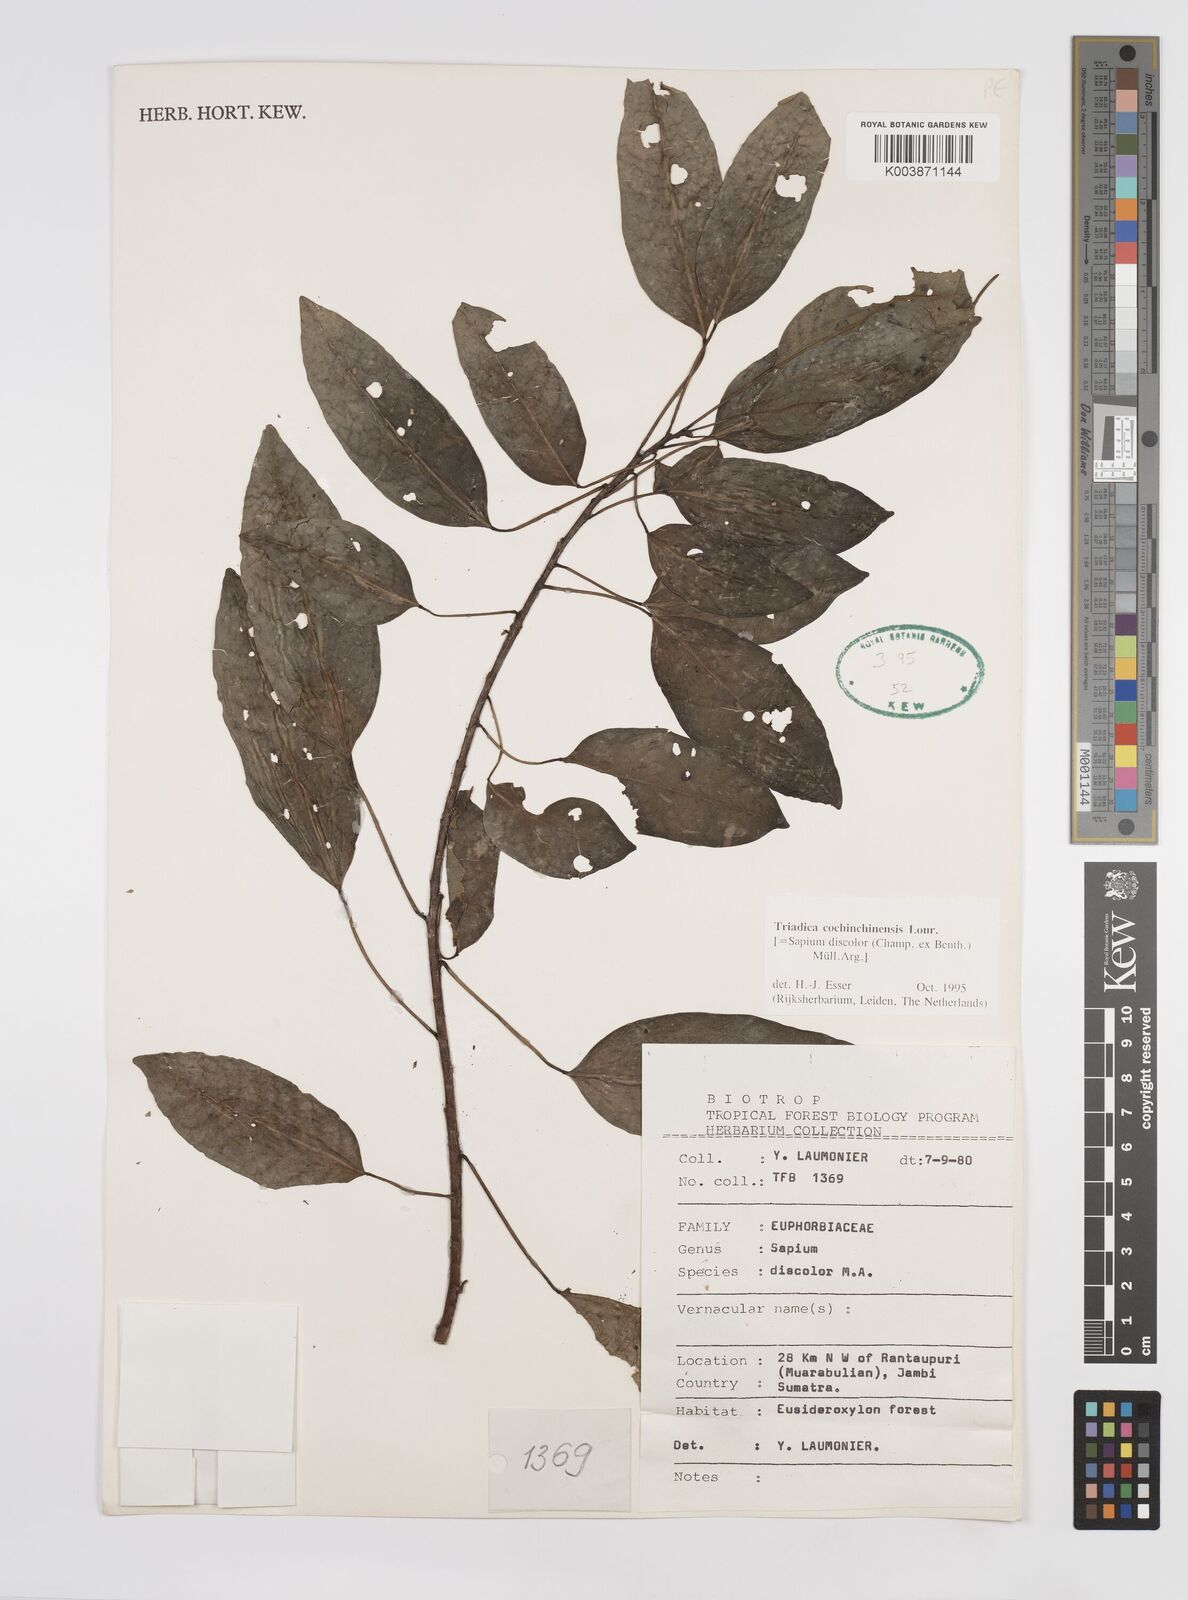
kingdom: Plantae
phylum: Tracheophyta
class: Magnoliopsida
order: Malpighiales
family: Euphorbiaceae
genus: Triadica
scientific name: Triadica cochinchinensis
